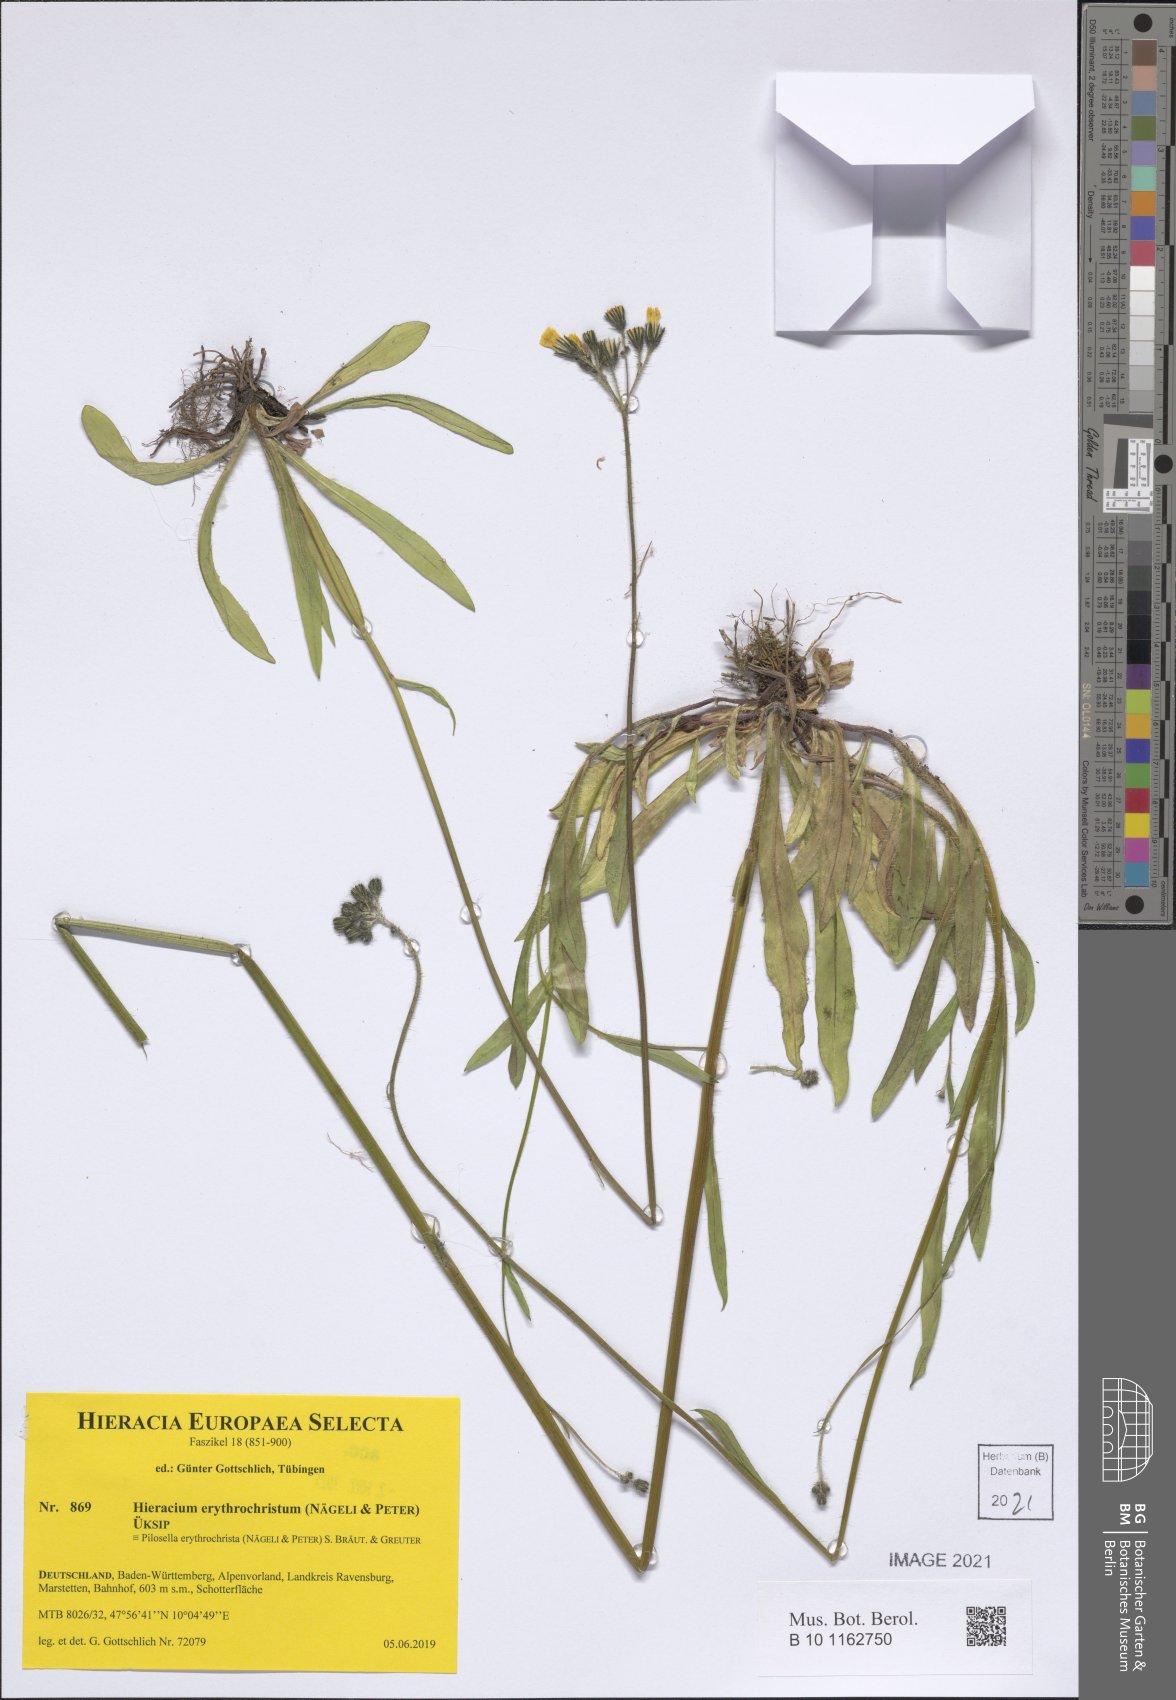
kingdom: Plantae
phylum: Tracheophyta
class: Magnoliopsida
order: Asterales
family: Asteraceae
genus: Pilosella
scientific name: Pilosella erythrochrista
